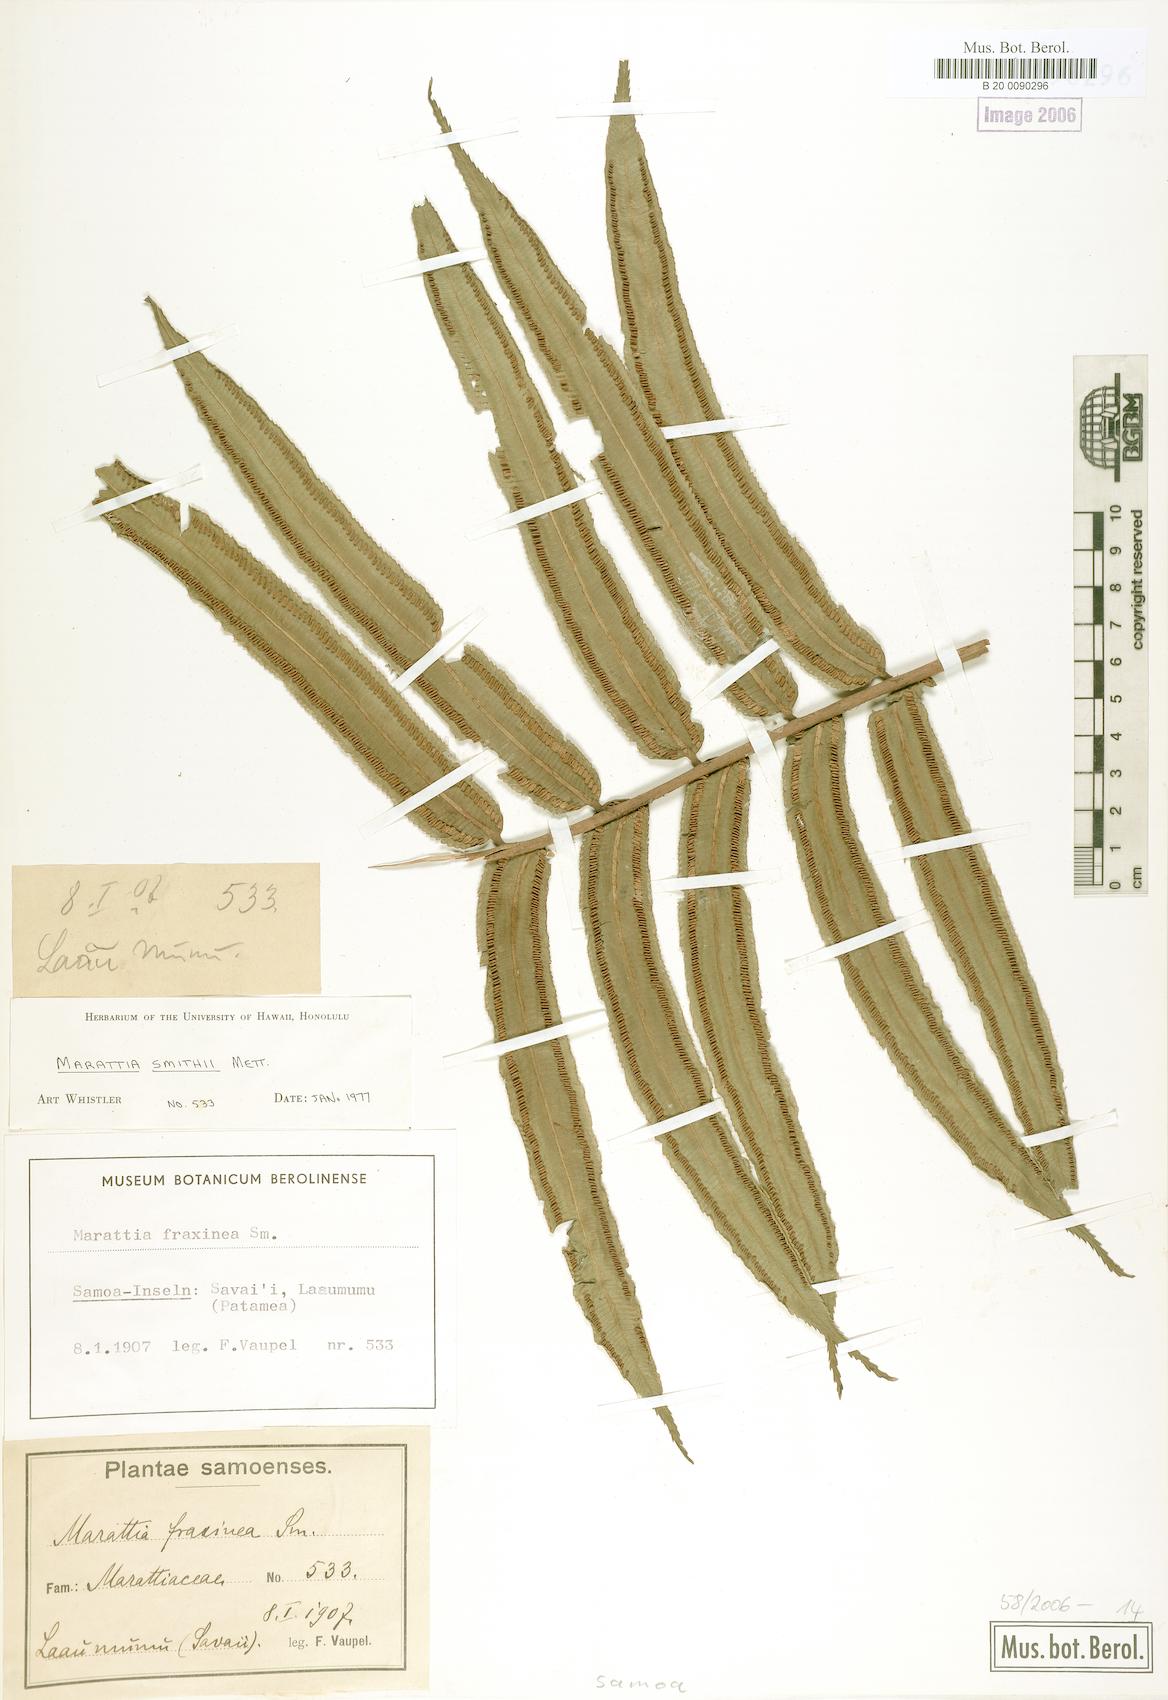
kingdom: Plantae
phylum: Tracheophyta
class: Polypodiopsida
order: Marattiales
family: Marattiaceae
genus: Ptisana
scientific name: Ptisana smithii
